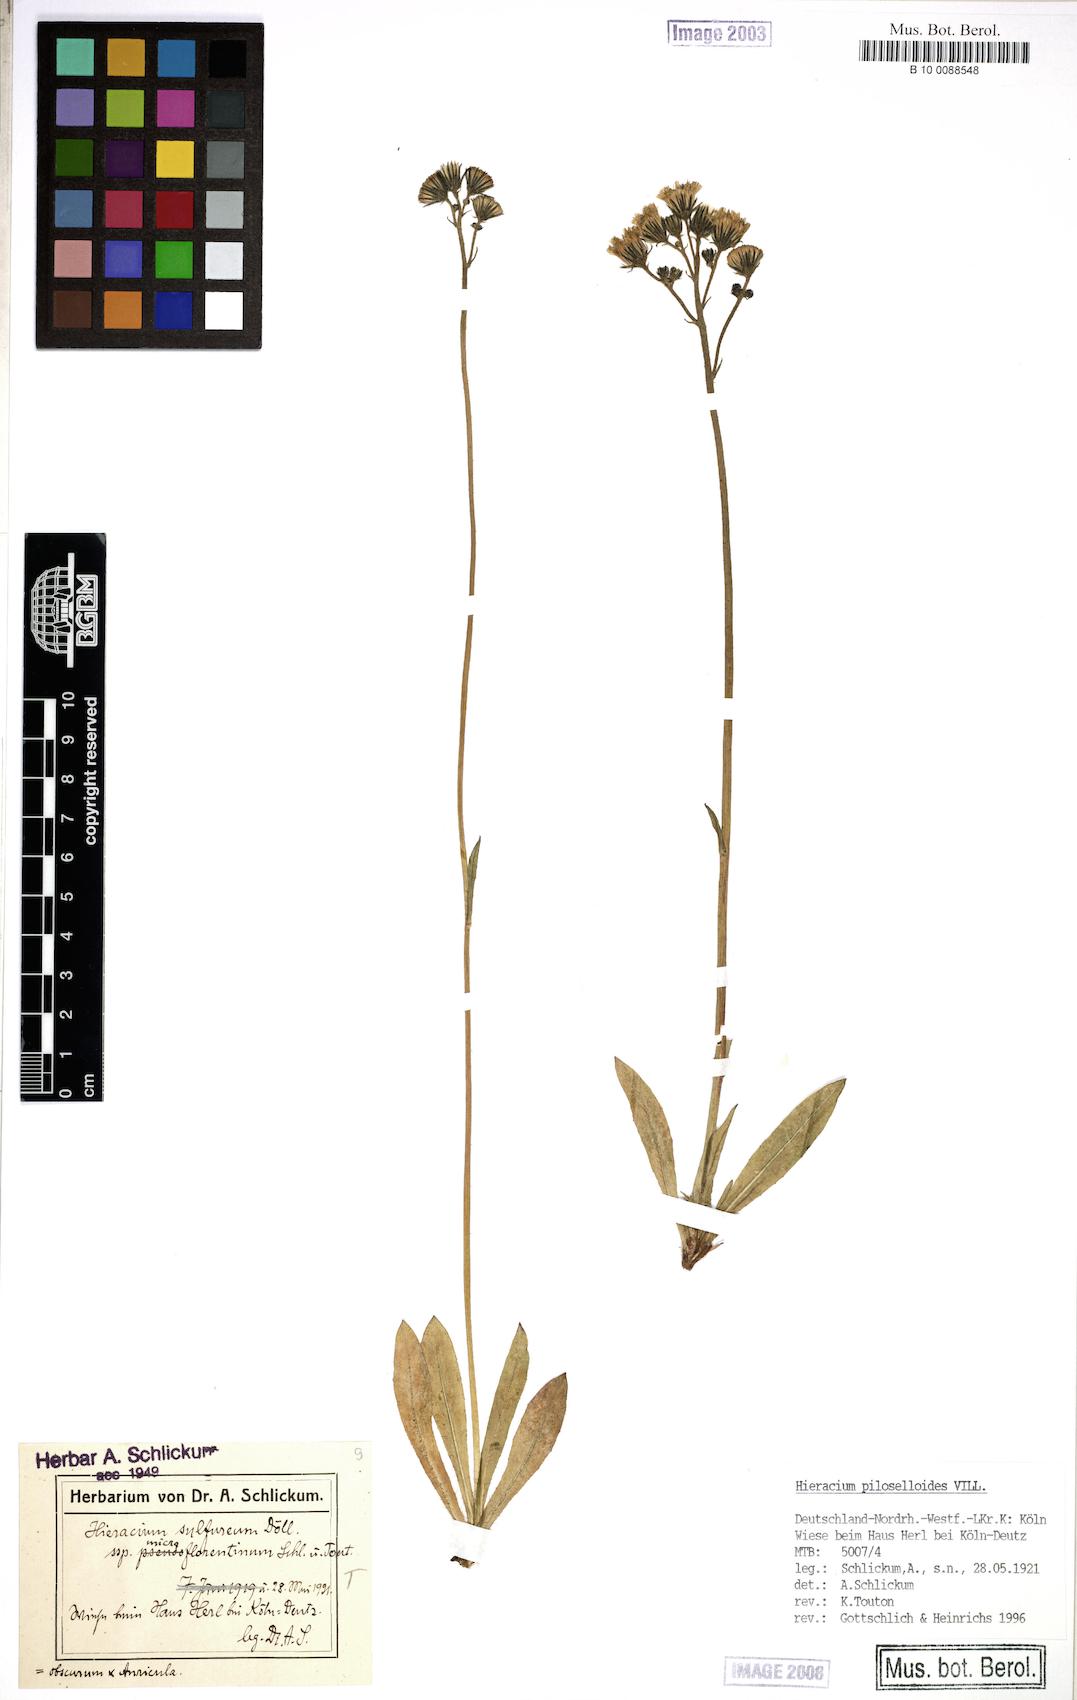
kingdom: Plantae
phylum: Tracheophyta
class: Magnoliopsida
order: Asterales
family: Asteraceae
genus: Pilosella
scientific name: Pilosella piloselloides
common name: Glaucous king-devil
